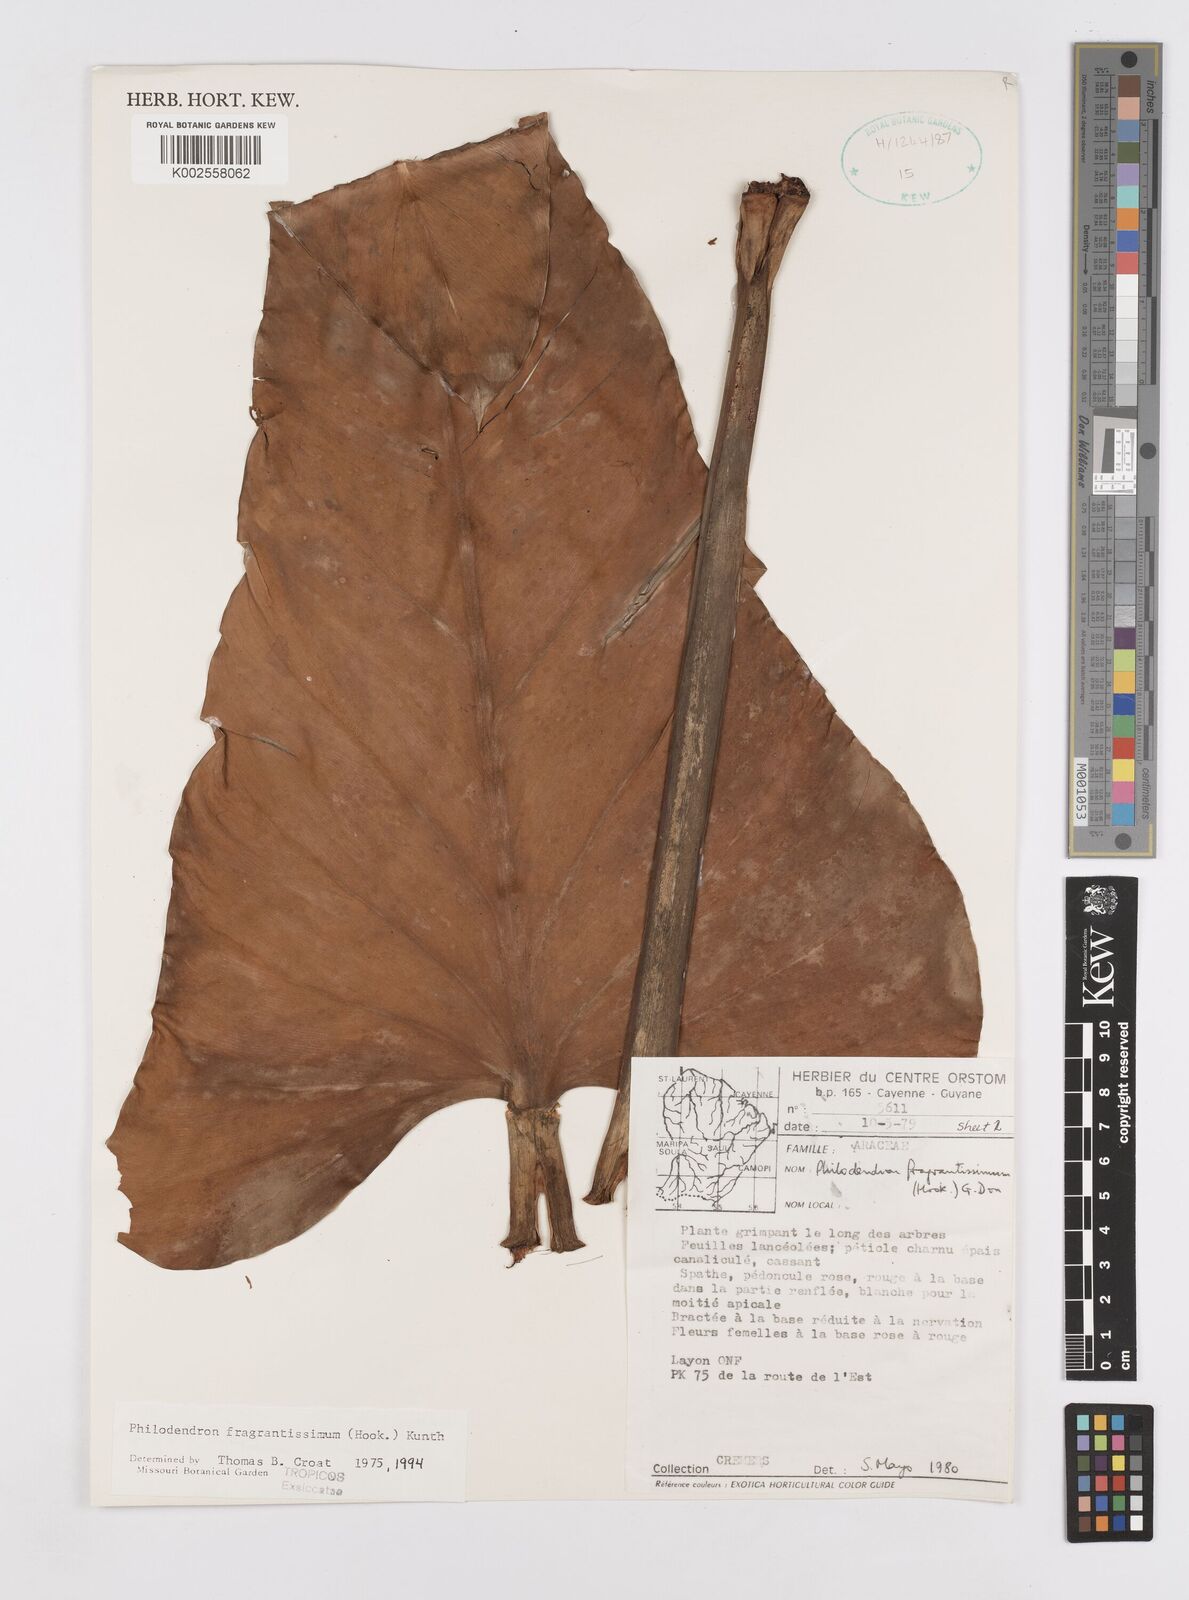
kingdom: Plantae
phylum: Tracheophyta
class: Liliopsida
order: Alismatales
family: Araceae
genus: Philodendron
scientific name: Philodendron fragrantissimum
